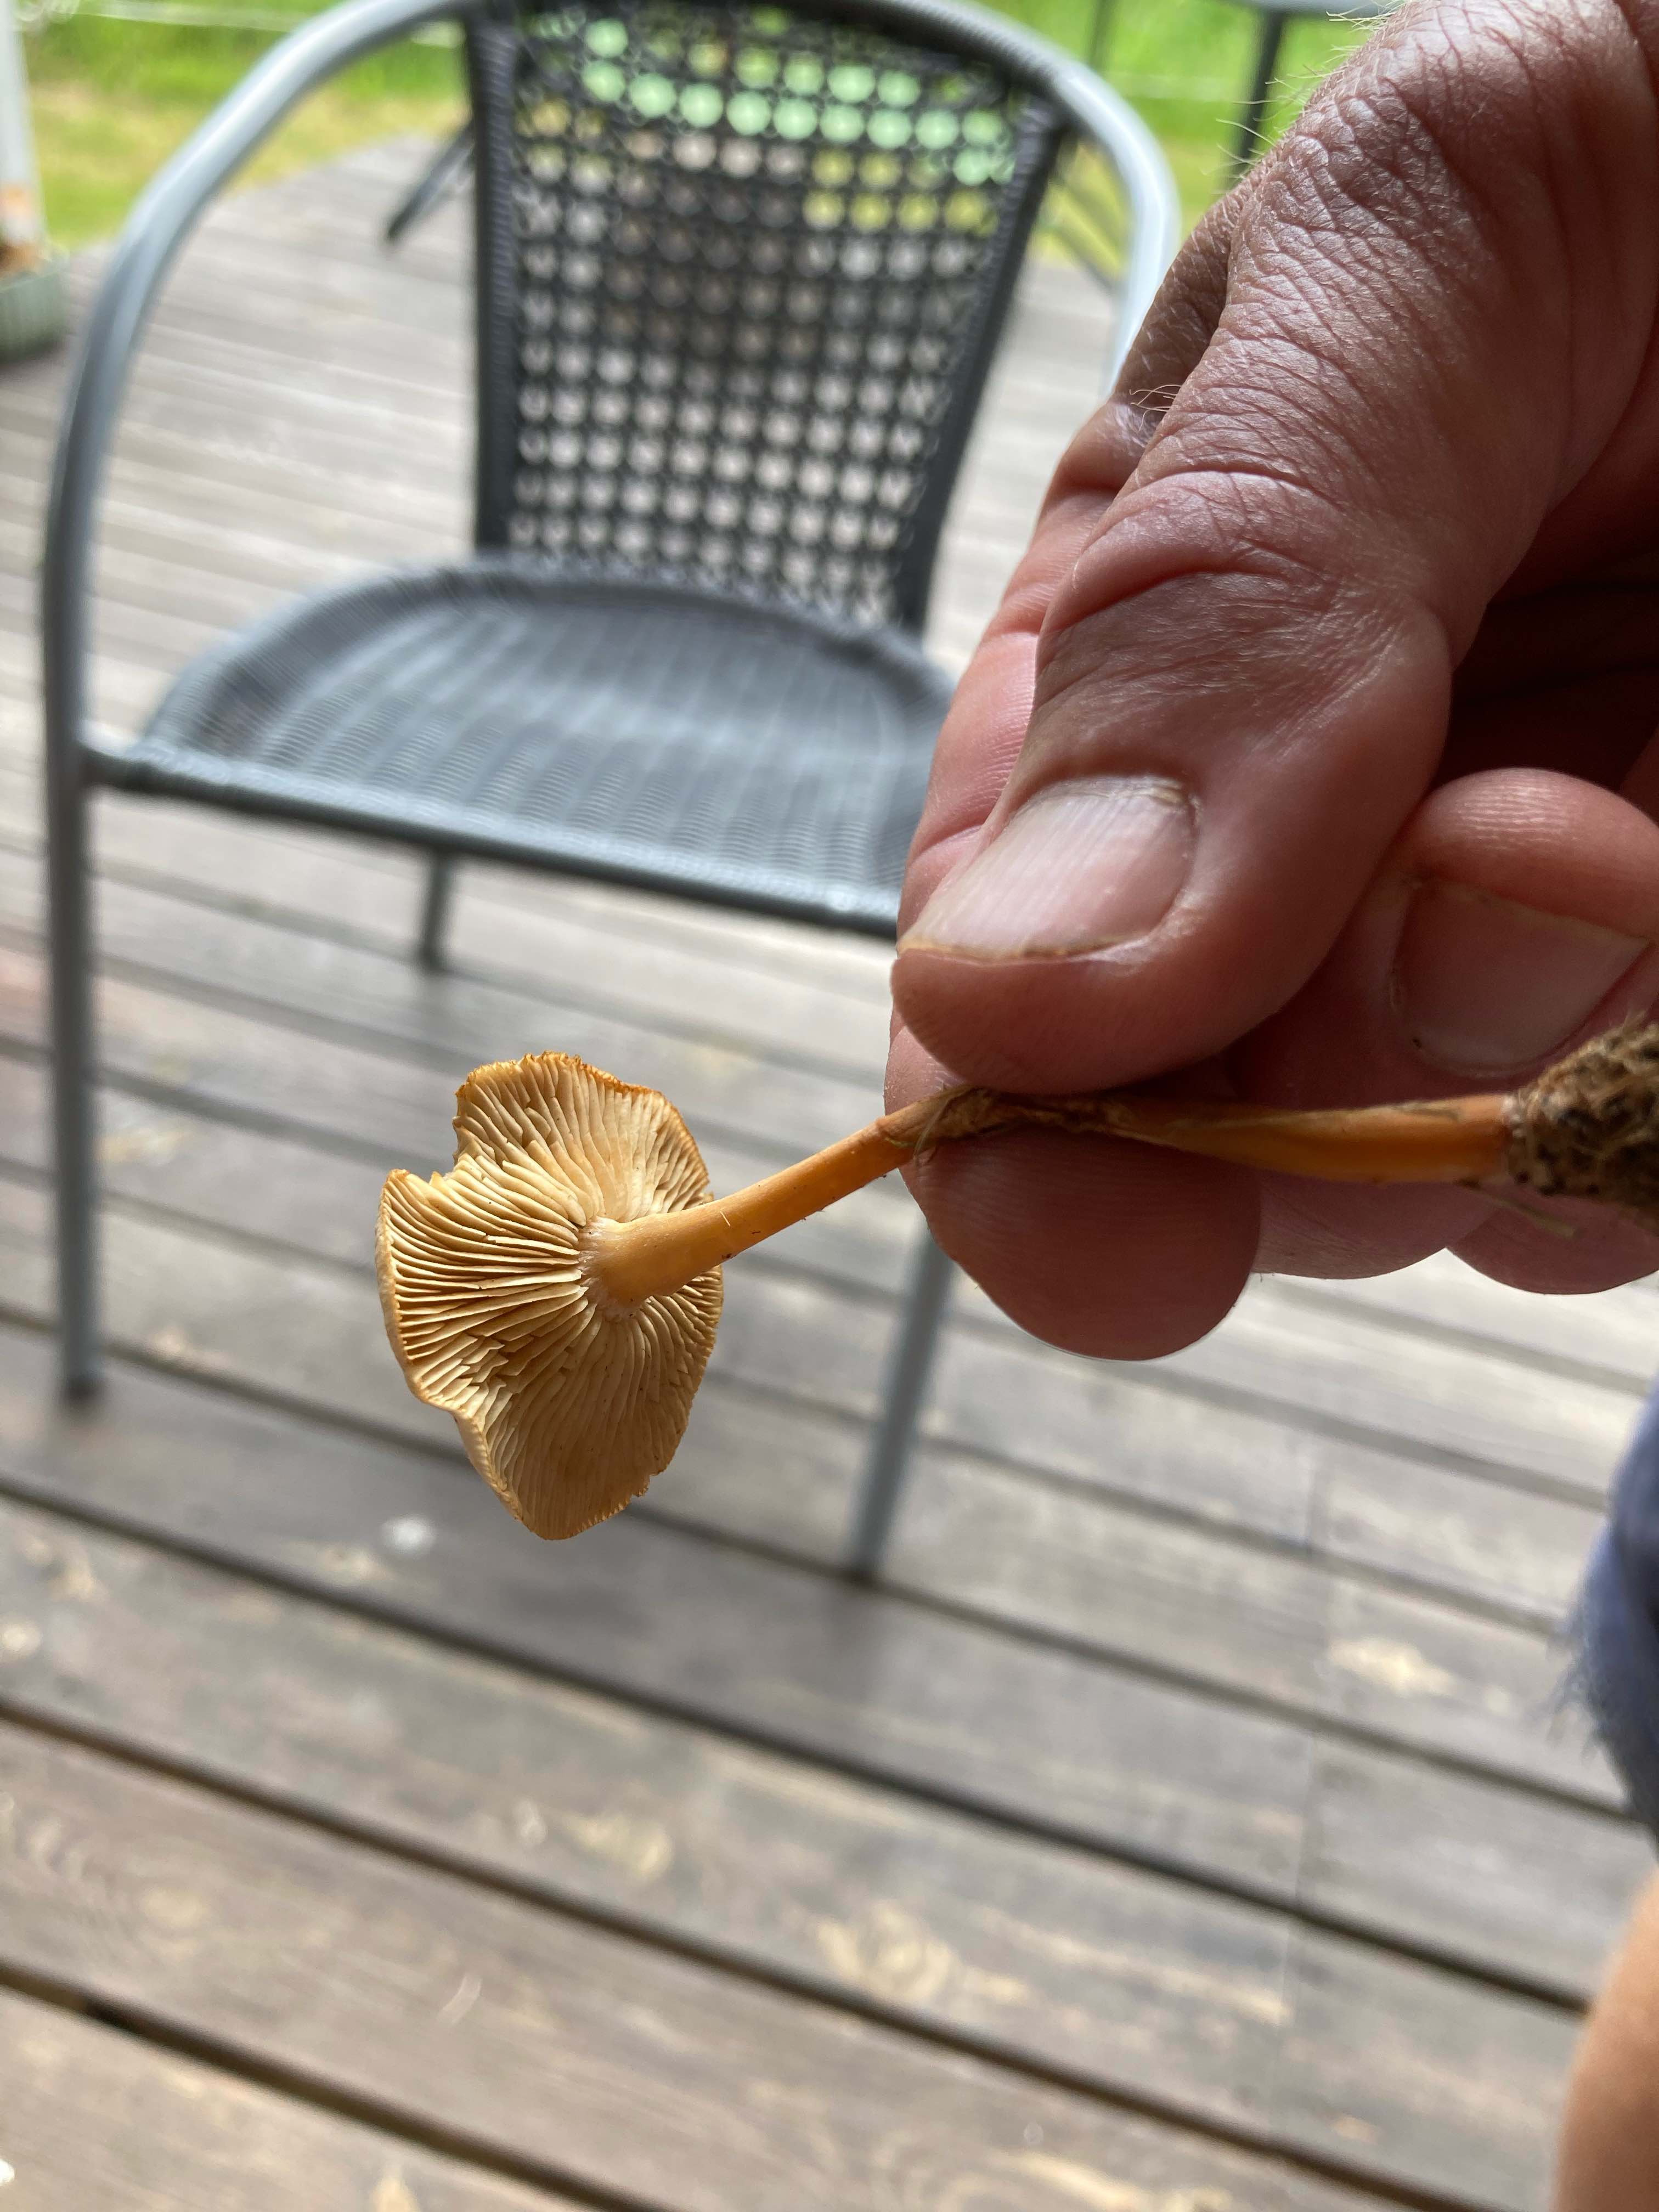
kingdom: Fungi
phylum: Basidiomycota
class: Agaricomycetes
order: Agaricales
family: Omphalotaceae
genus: Gymnopus
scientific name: Gymnopus dryophilus
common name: løv-fladhat
